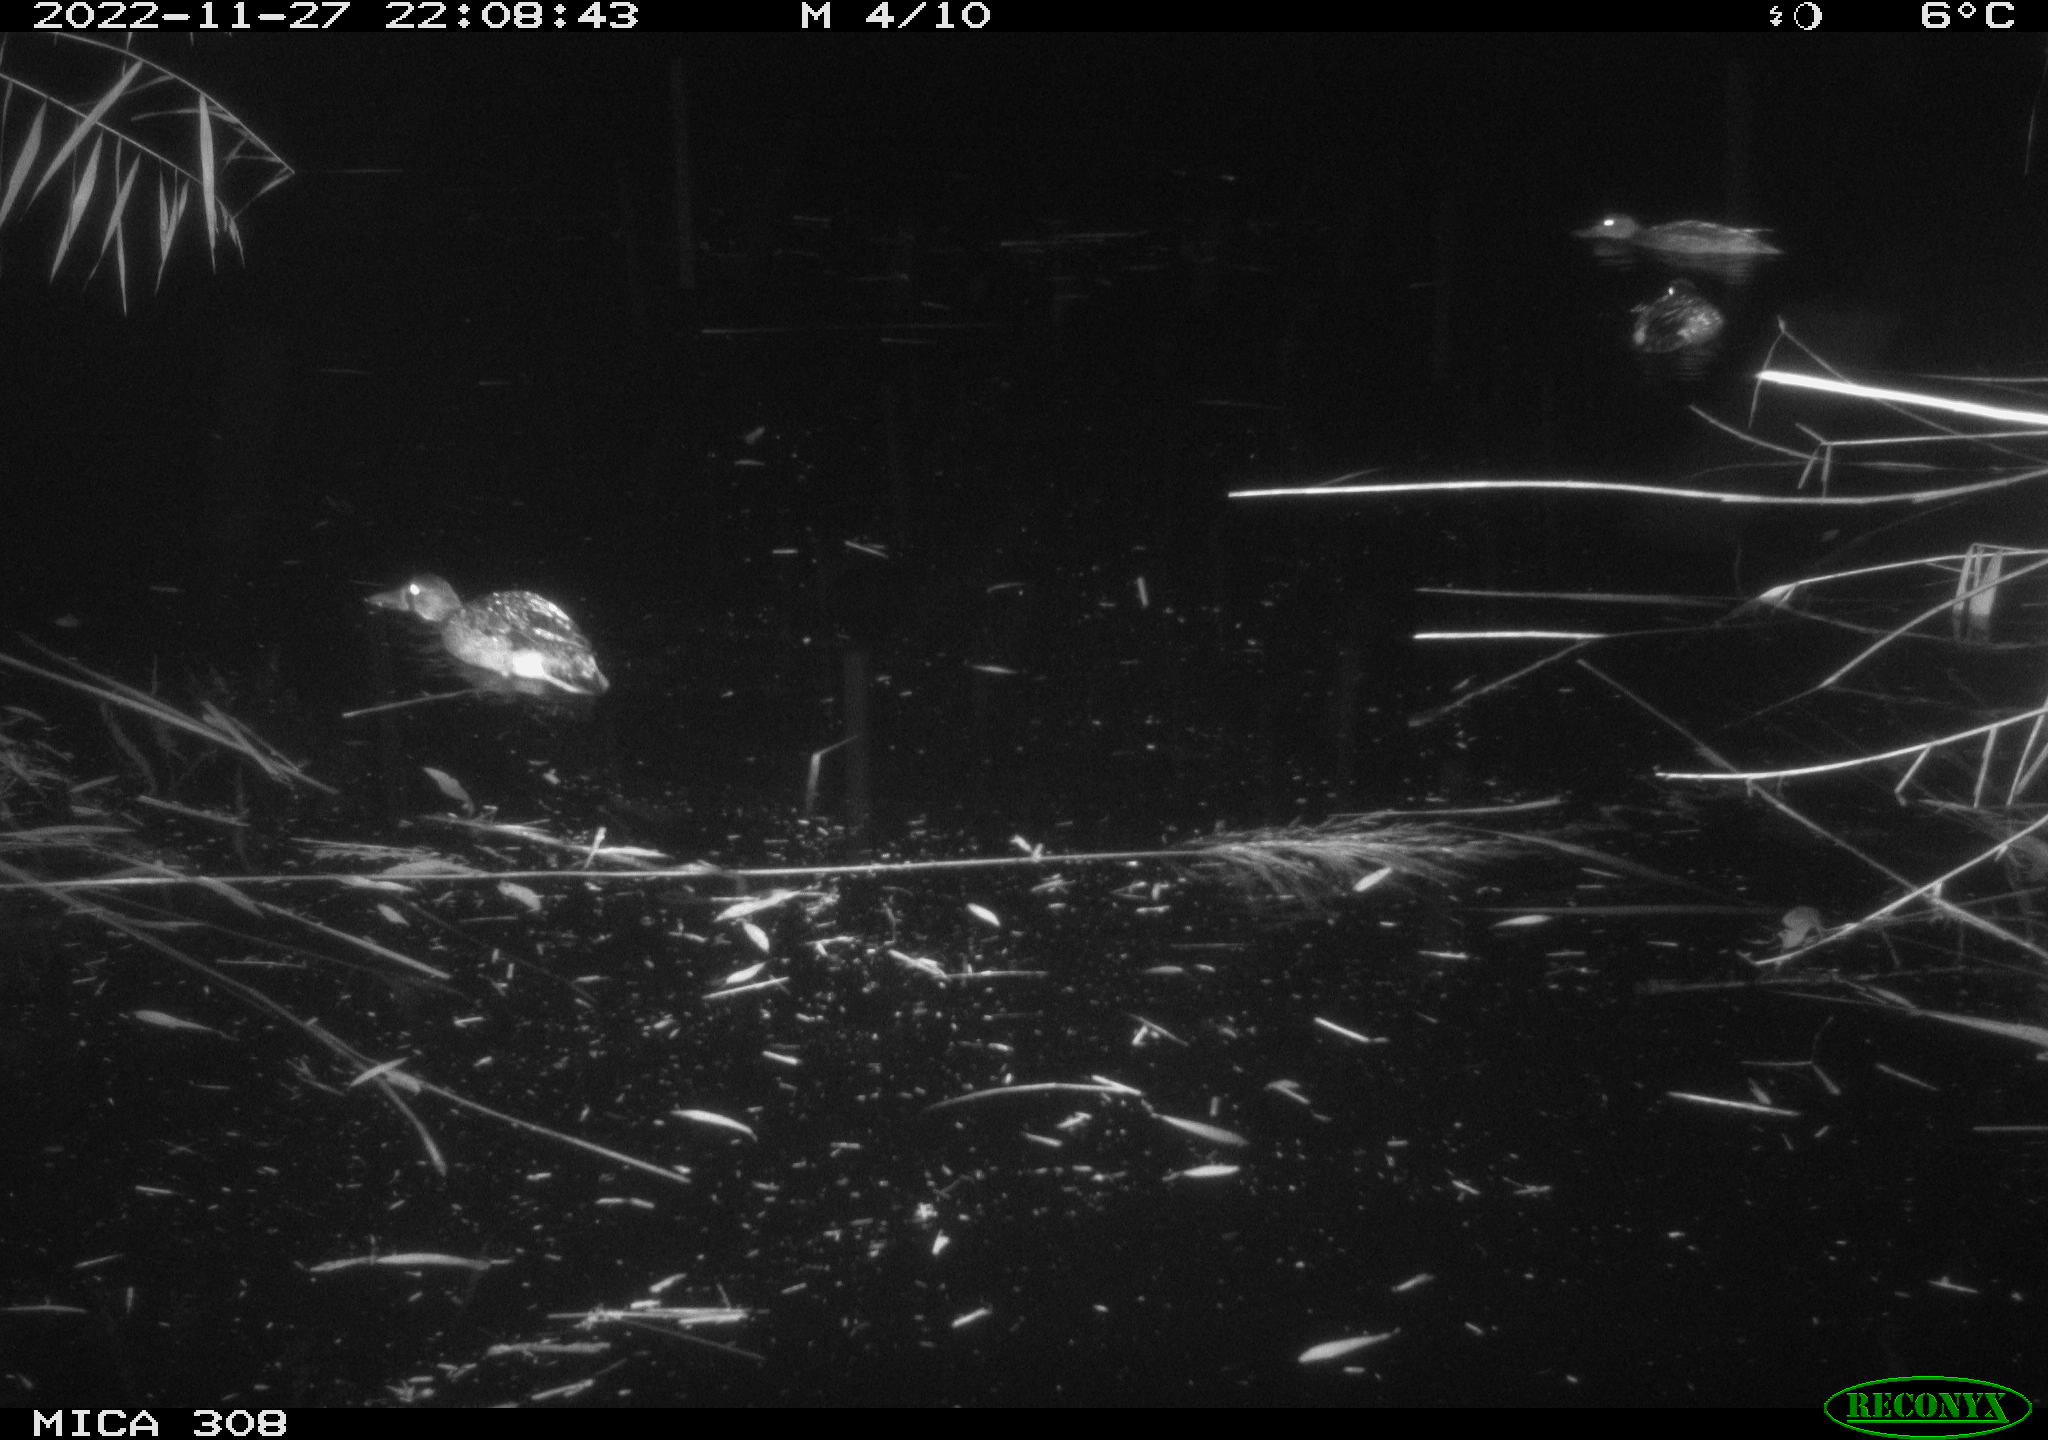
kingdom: Animalia
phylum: Chordata
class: Mammalia
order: Rodentia
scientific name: Rodentia
